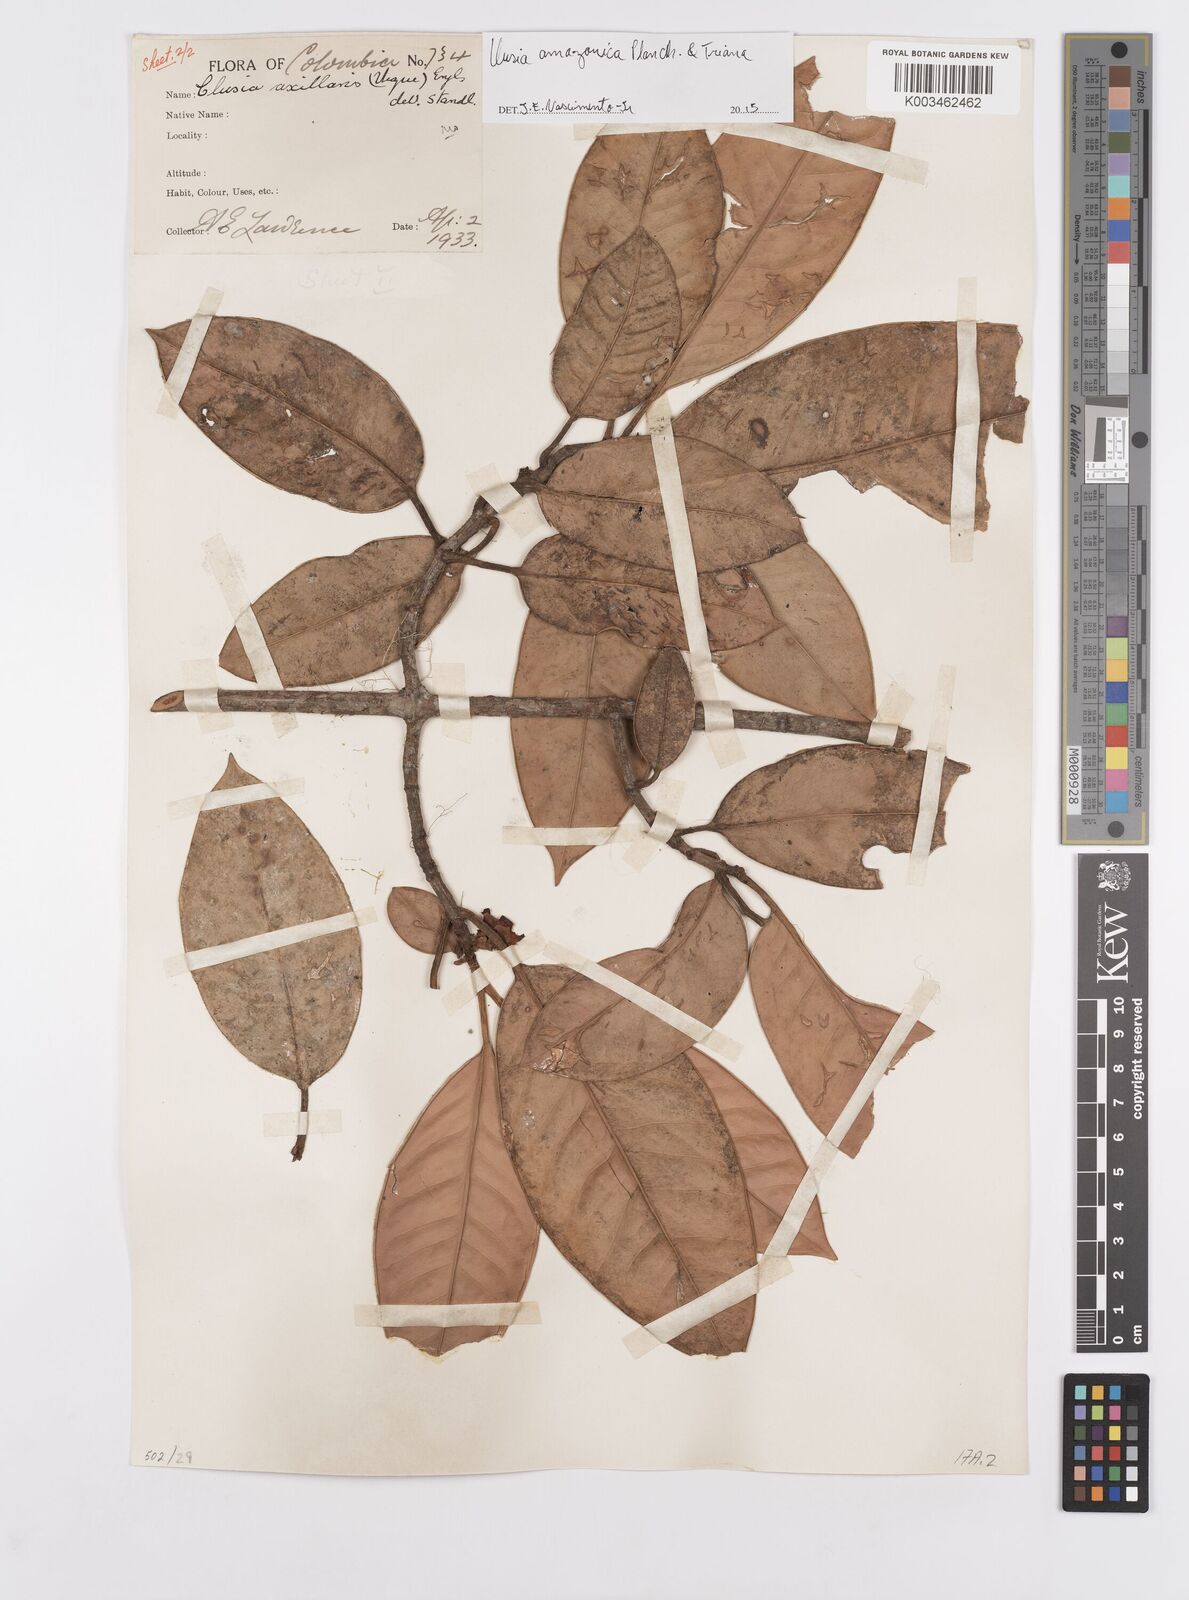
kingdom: Plantae
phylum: Tracheophyta
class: Magnoliopsida
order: Malpighiales
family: Clusiaceae
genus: Clusia
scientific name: Clusia amazonica
